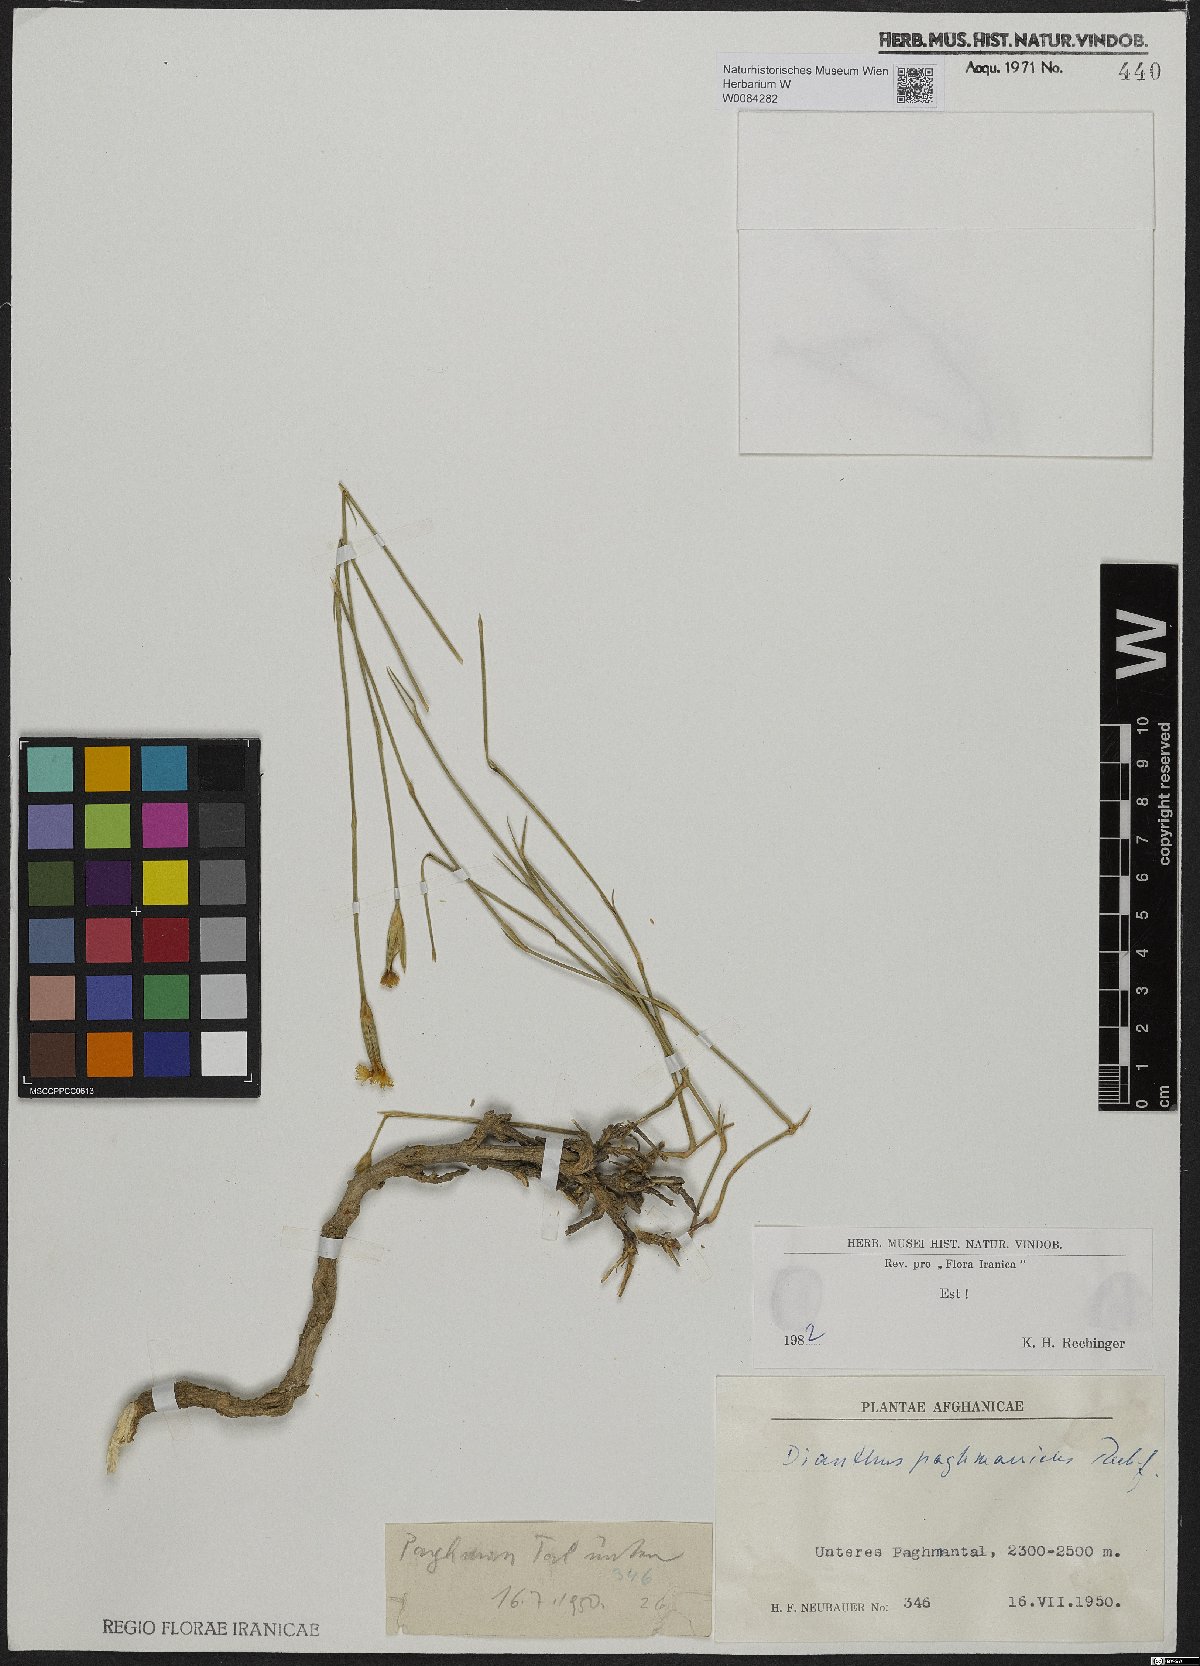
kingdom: Plantae
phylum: Tracheophyta
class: Magnoliopsida
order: Caryophyllales
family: Caryophyllaceae
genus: Dianthus
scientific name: Dianthus paghmanicus
